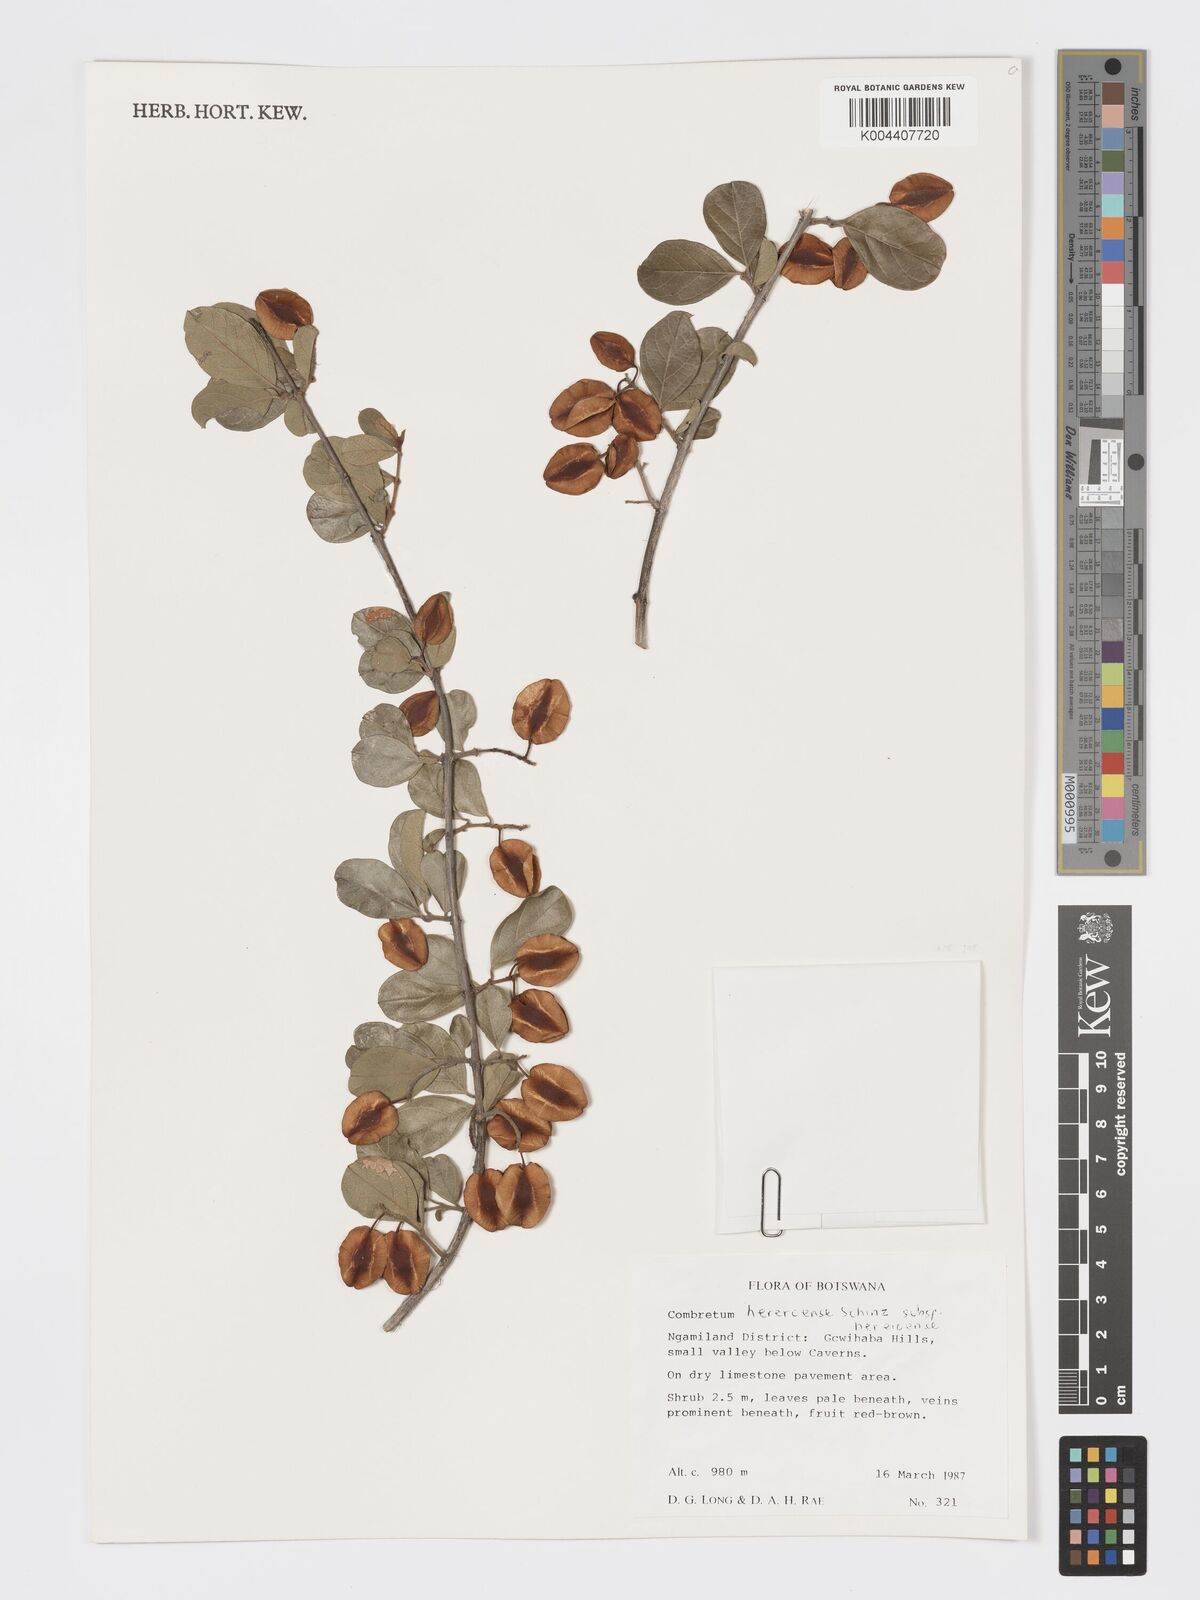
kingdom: Plantae
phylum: Tracheophyta
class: Magnoliopsida
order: Myrtales
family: Combretaceae
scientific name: Combretaceae
